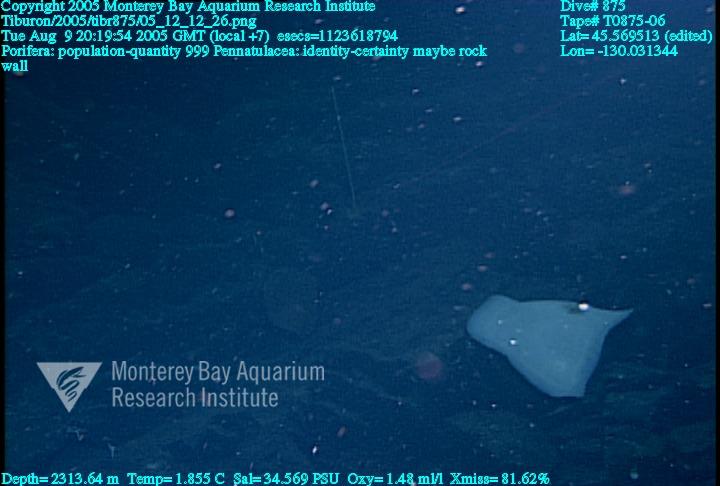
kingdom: Animalia
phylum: Porifera
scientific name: Porifera
